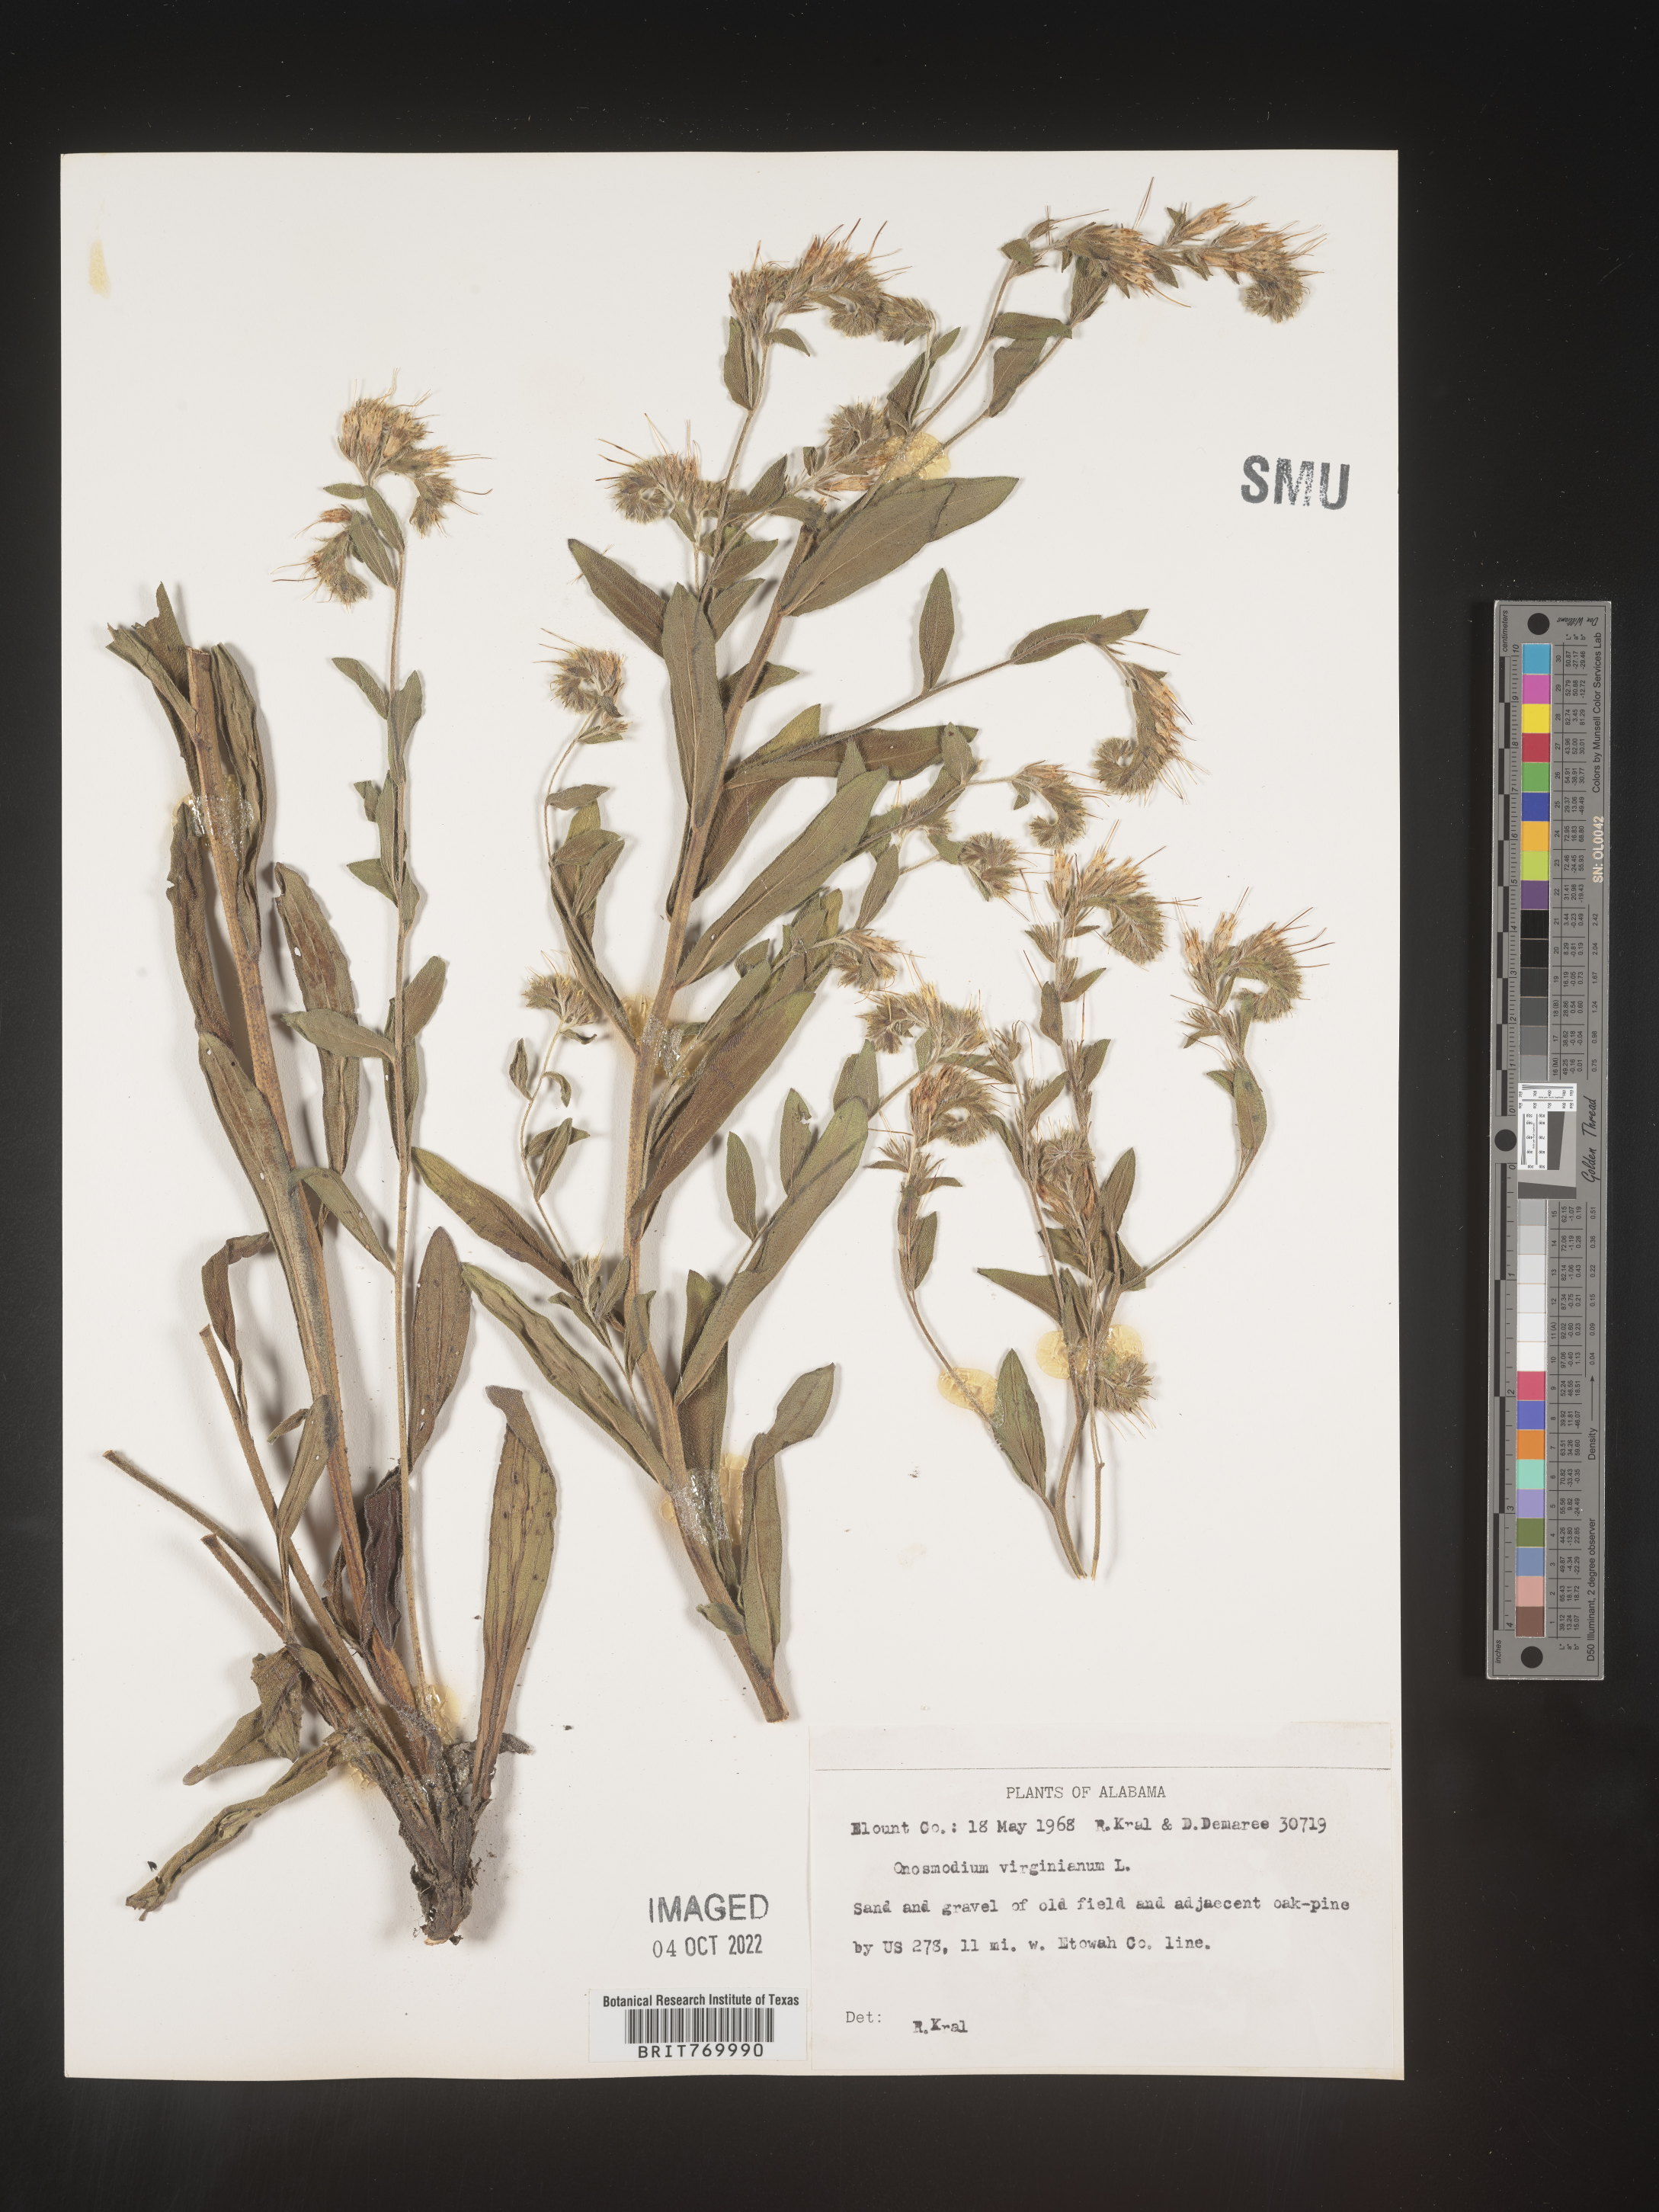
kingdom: Plantae
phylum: Tracheophyta
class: Magnoliopsida
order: Boraginales
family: Boraginaceae
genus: Lithospermum
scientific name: Lithospermum virginianum
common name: Eastern false gromwell
